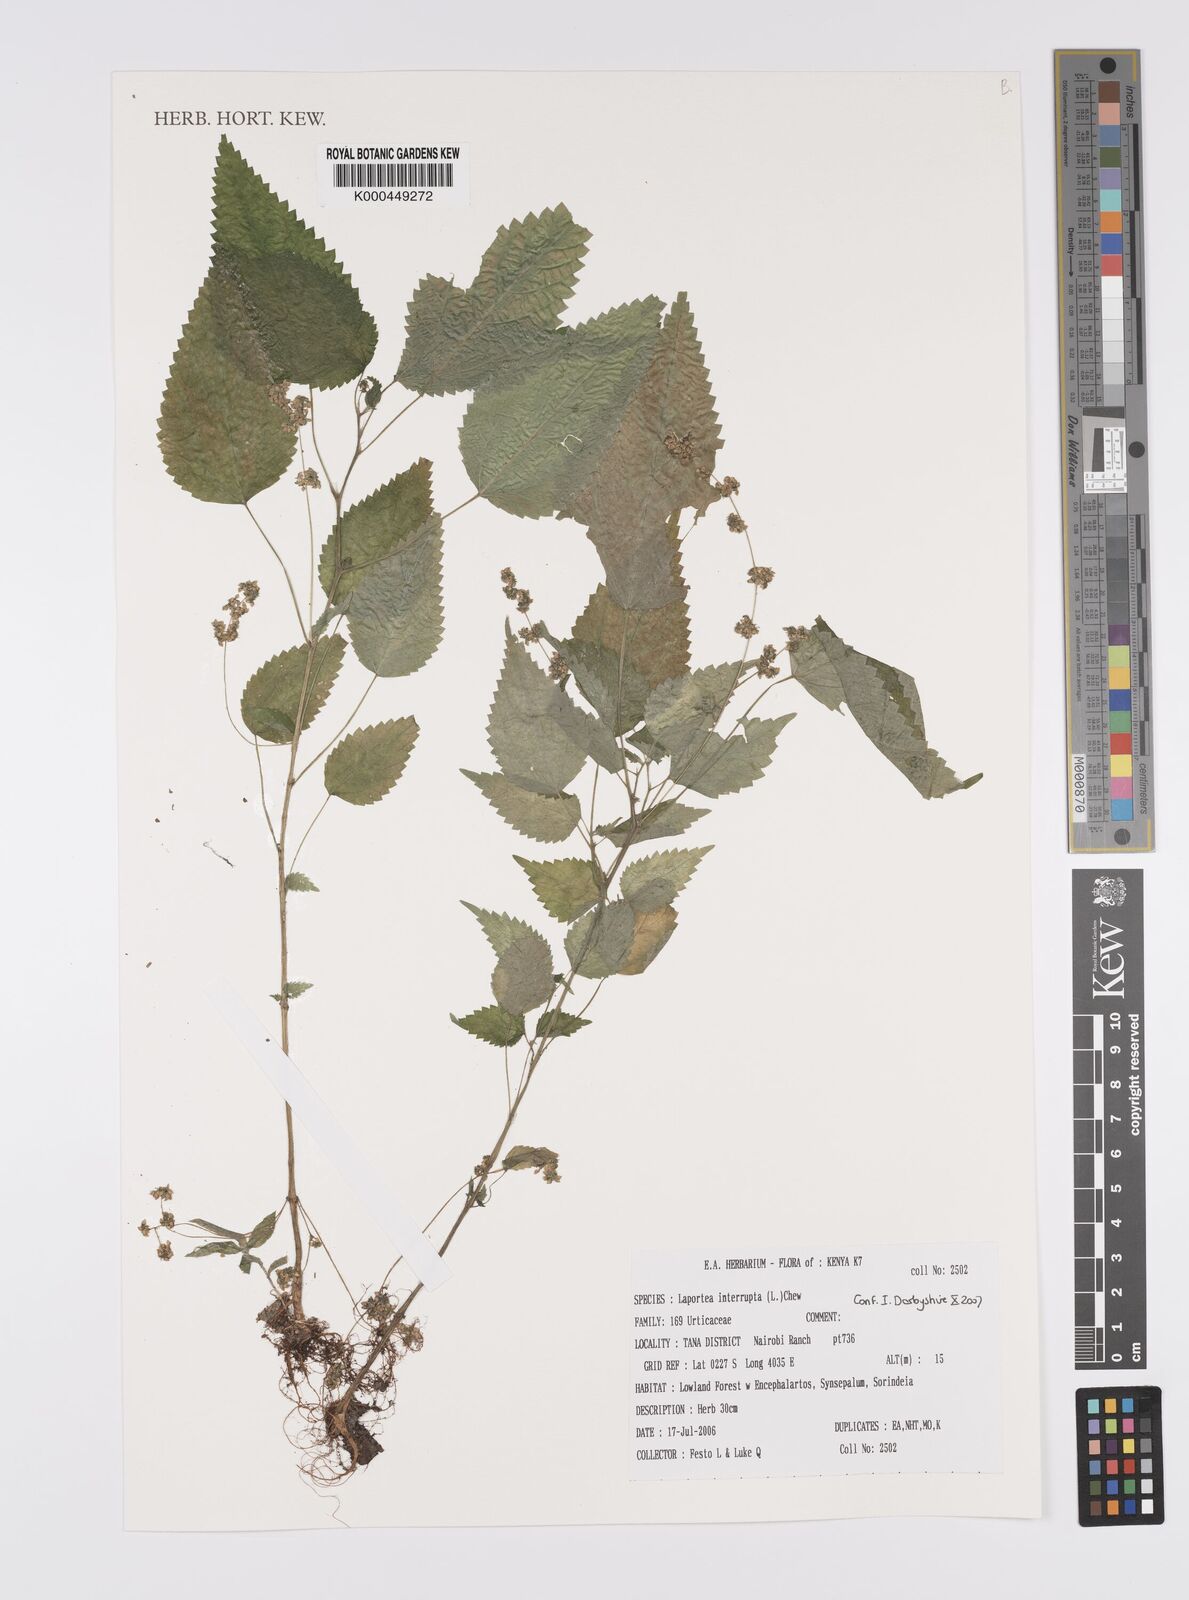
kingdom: Plantae
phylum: Tracheophyta
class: Magnoliopsida
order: Rosales
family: Urticaceae
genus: Laportea
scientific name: Laportea interrupta
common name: Hawaiian wood-nettle
